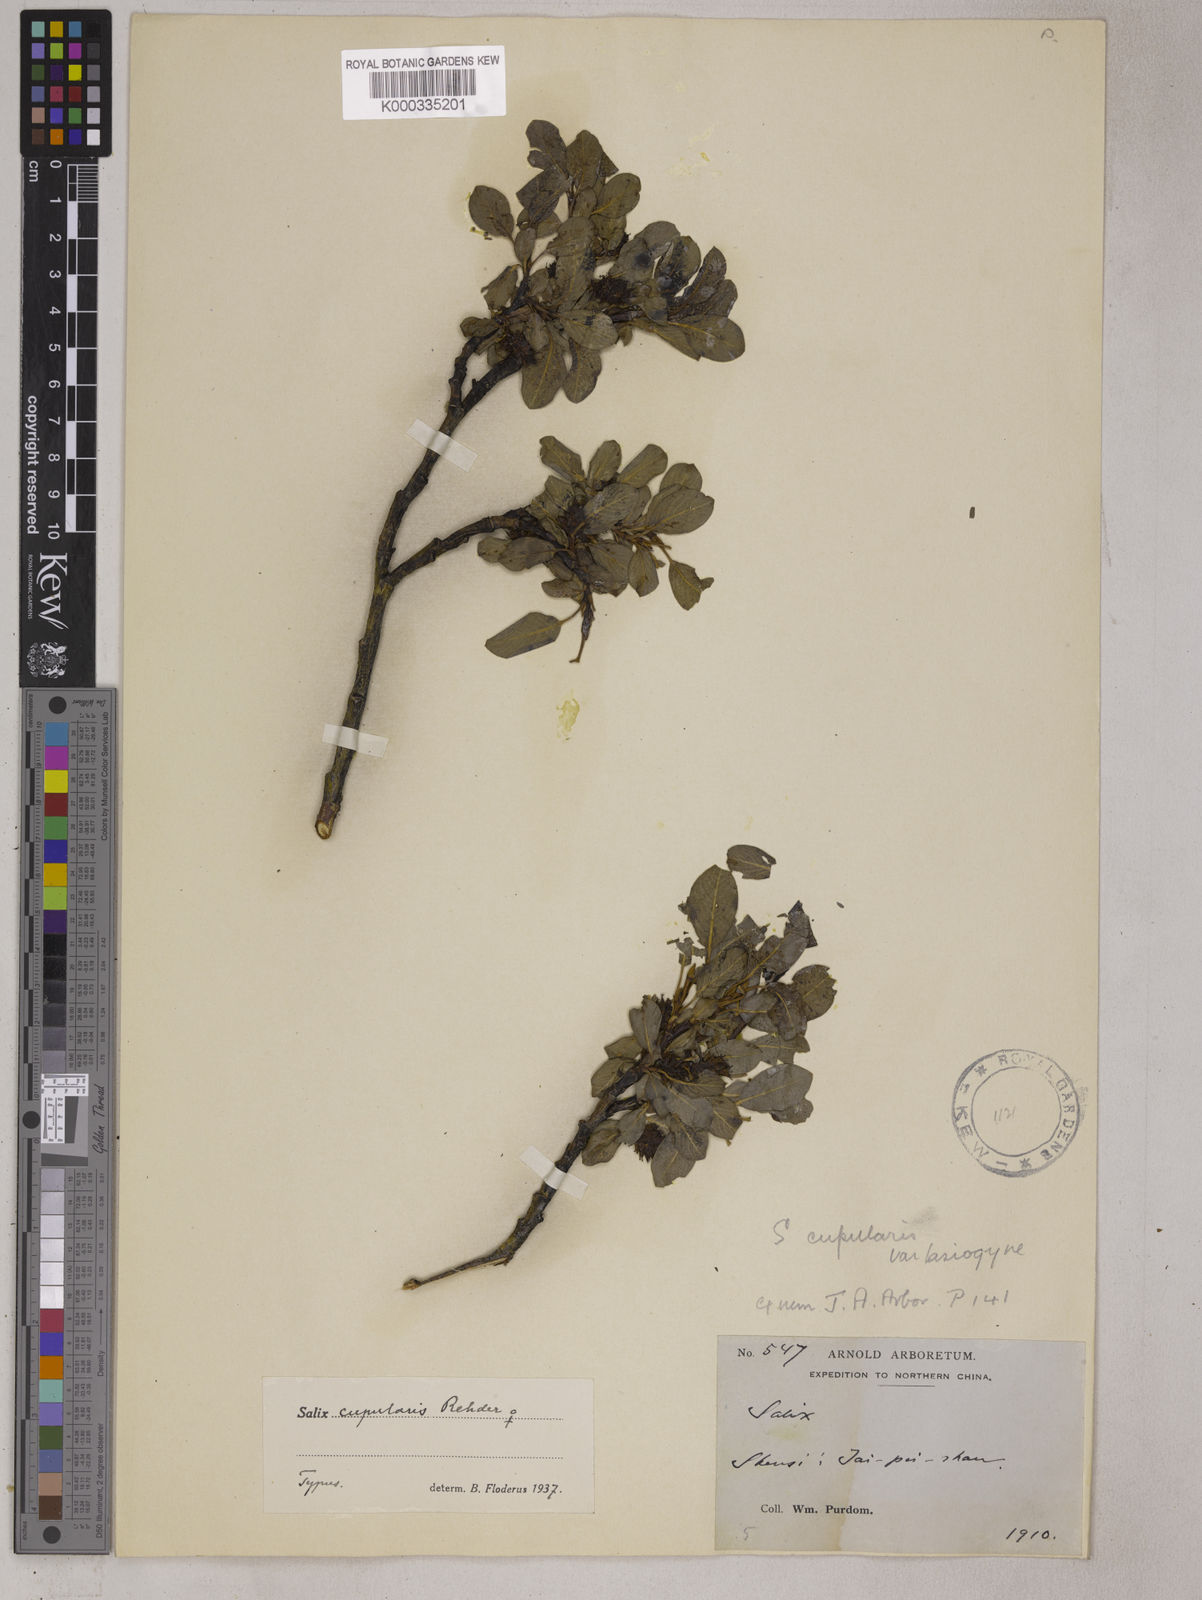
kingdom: Plantae
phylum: Tracheophyta
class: Magnoliopsida
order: Malpighiales
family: Salicaceae
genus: Salix
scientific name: Salix cupularis
